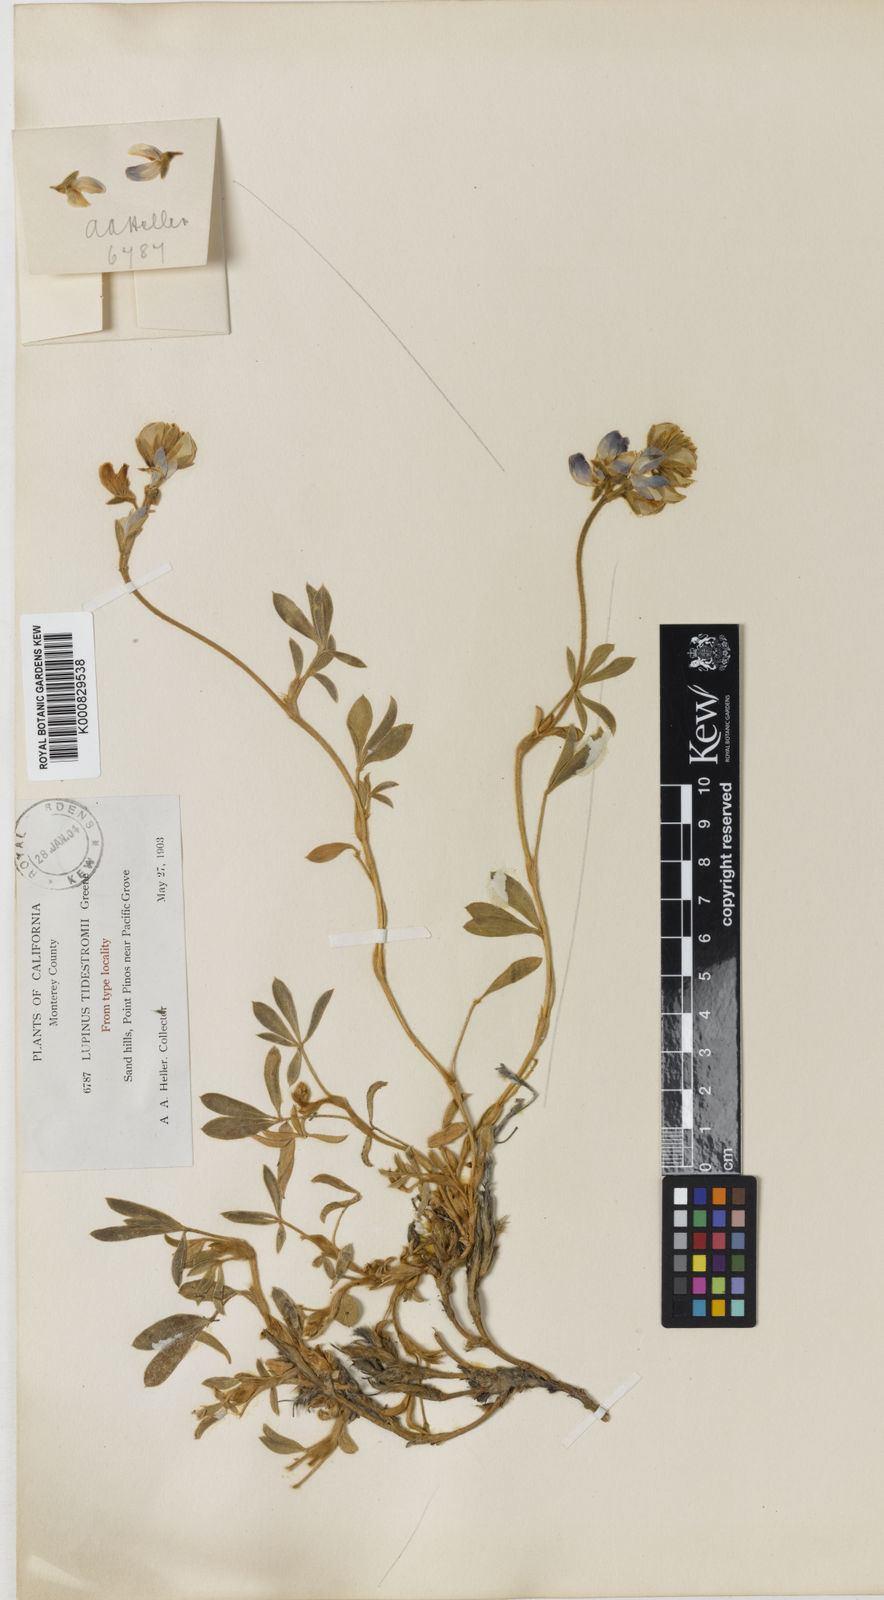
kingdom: Plantae
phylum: Tracheophyta
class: Magnoliopsida
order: Fabales
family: Fabaceae
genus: Lupinus
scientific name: Lupinus tidestromii
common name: Clover lupine
